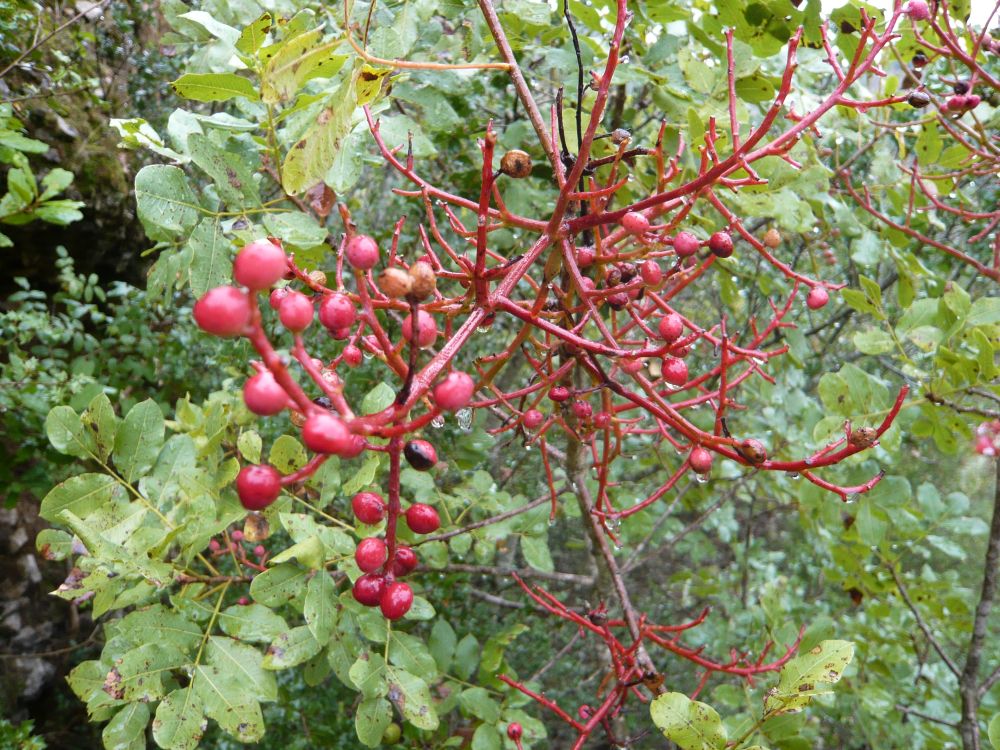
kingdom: Plantae
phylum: Tracheophyta
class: Magnoliopsida
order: Sapindales
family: Anacardiaceae
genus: Pistacia
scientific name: Pistacia terebinthus
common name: Terebinth
